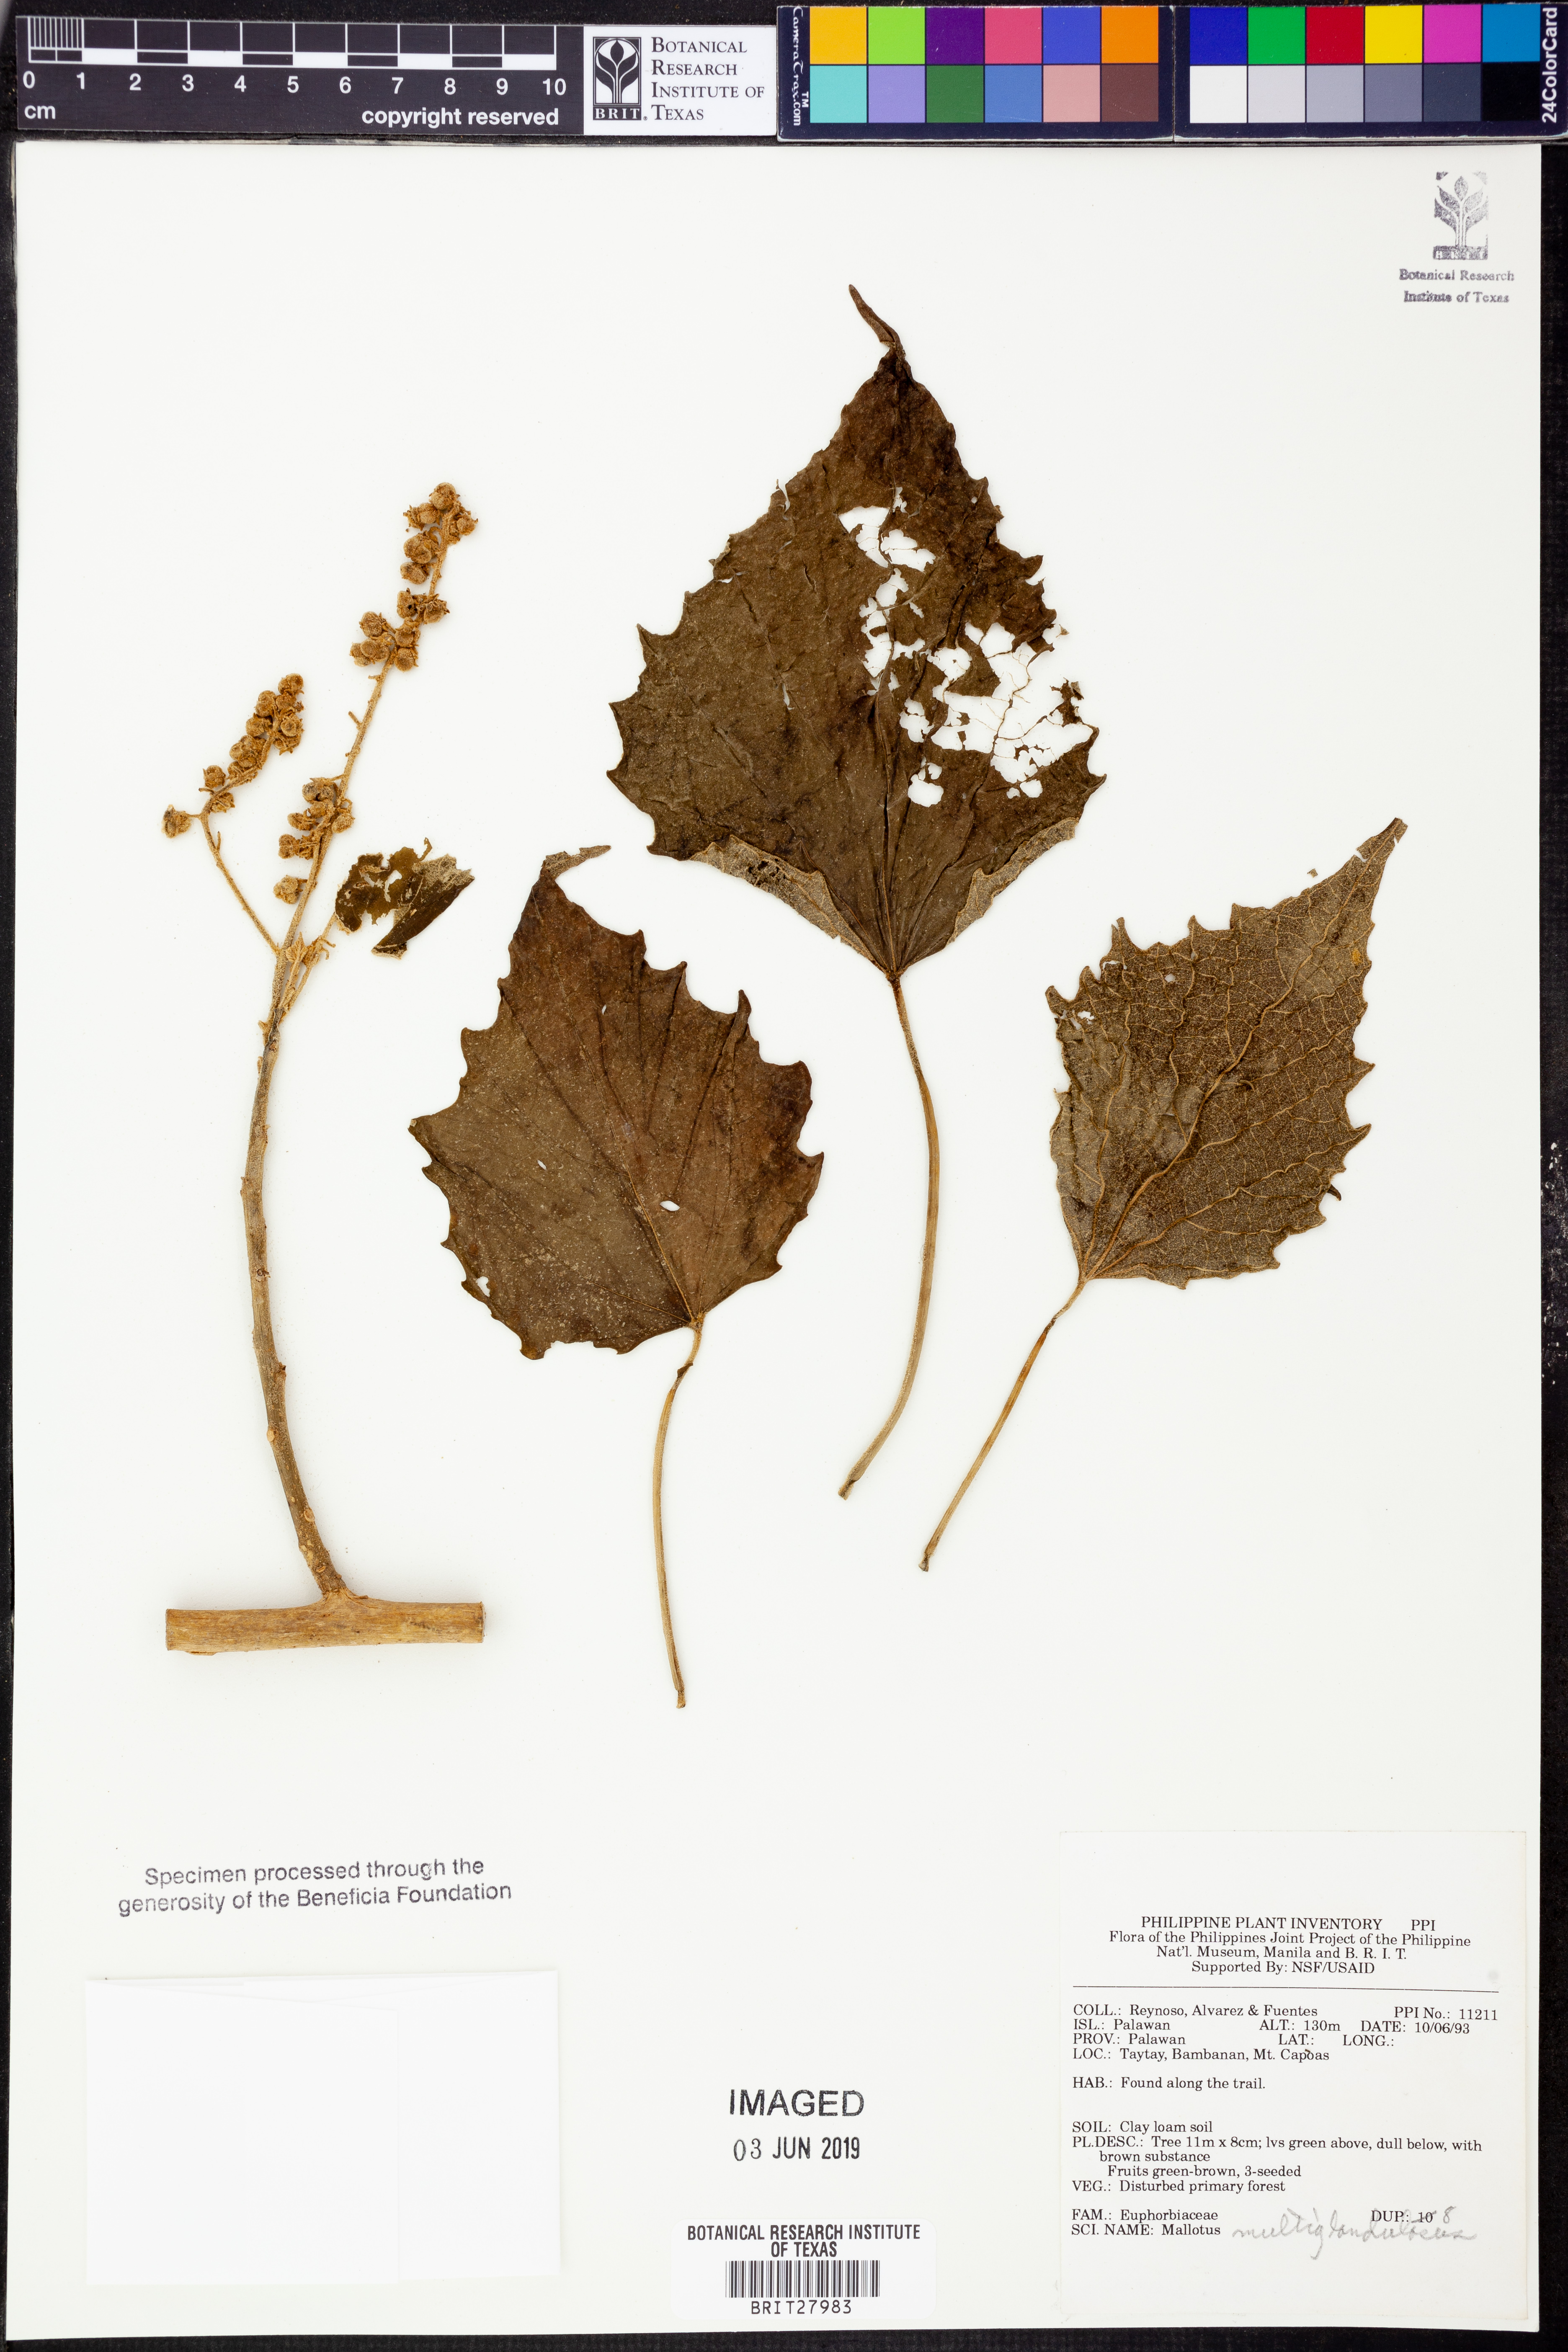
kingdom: Plantae
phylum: Tracheophyta
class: Magnoliopsida
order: Malpighiales
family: Euphorbiaceae
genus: Melanolepis
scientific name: Melanolepis multiglandulosa
